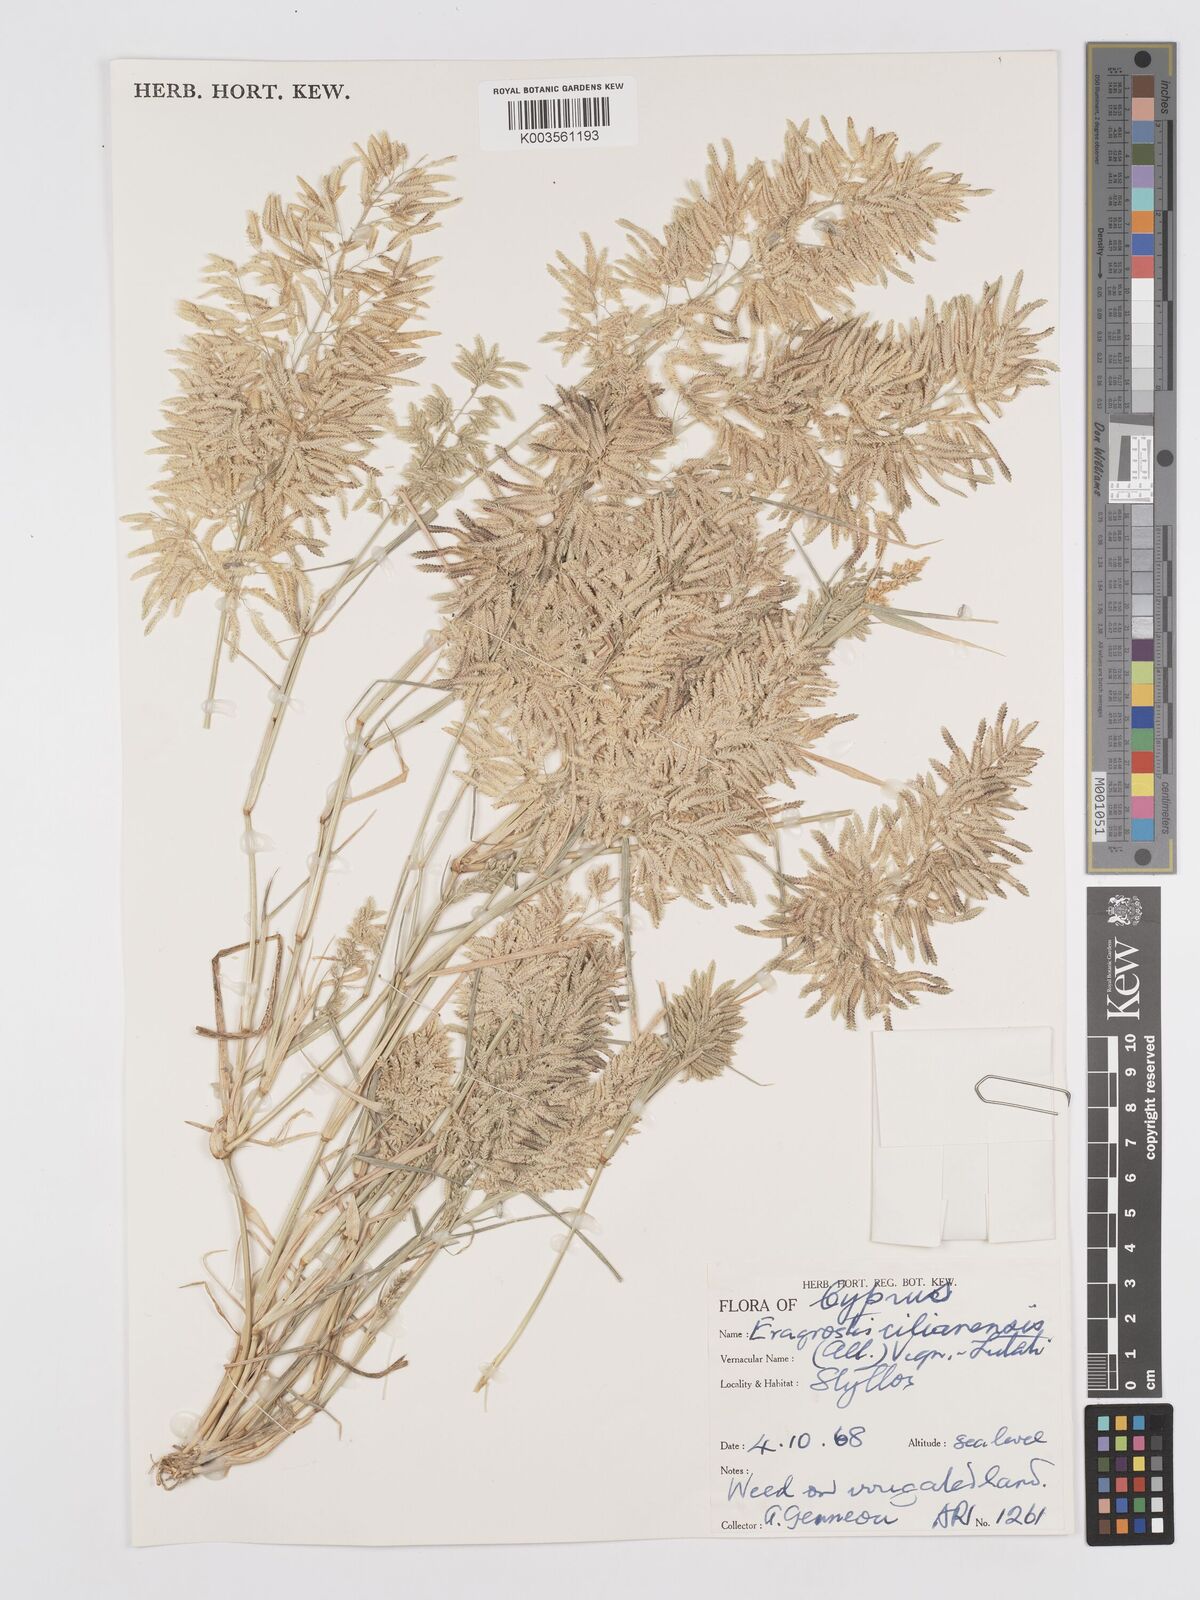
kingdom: Plantae
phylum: Tracheophyta
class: Liliopsida
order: Poales
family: Poaceae
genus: Eragrostis
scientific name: Eragrostis cilianensis
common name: Stinkgrass
